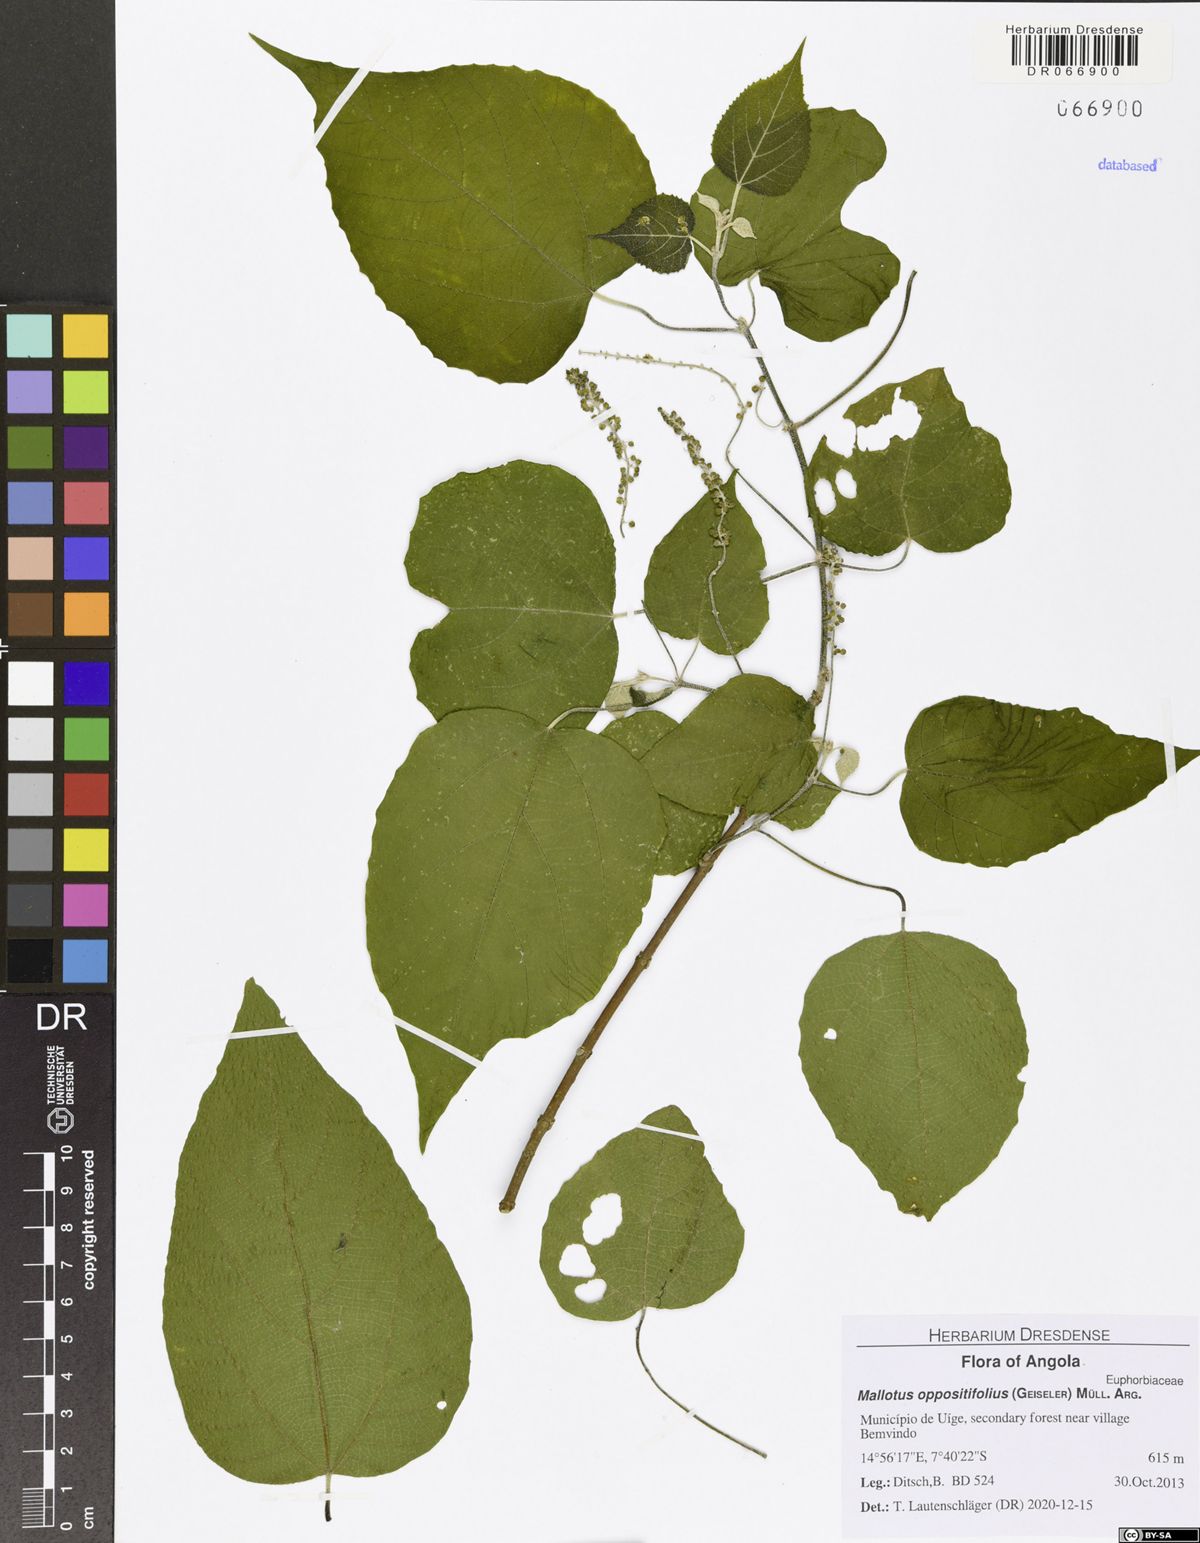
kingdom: Plantae
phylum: Tracheophyta
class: Magnoliopsida
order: Malpighiales
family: Euphorbiaceae
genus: Mallotus
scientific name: Mallotus oppositifolius
